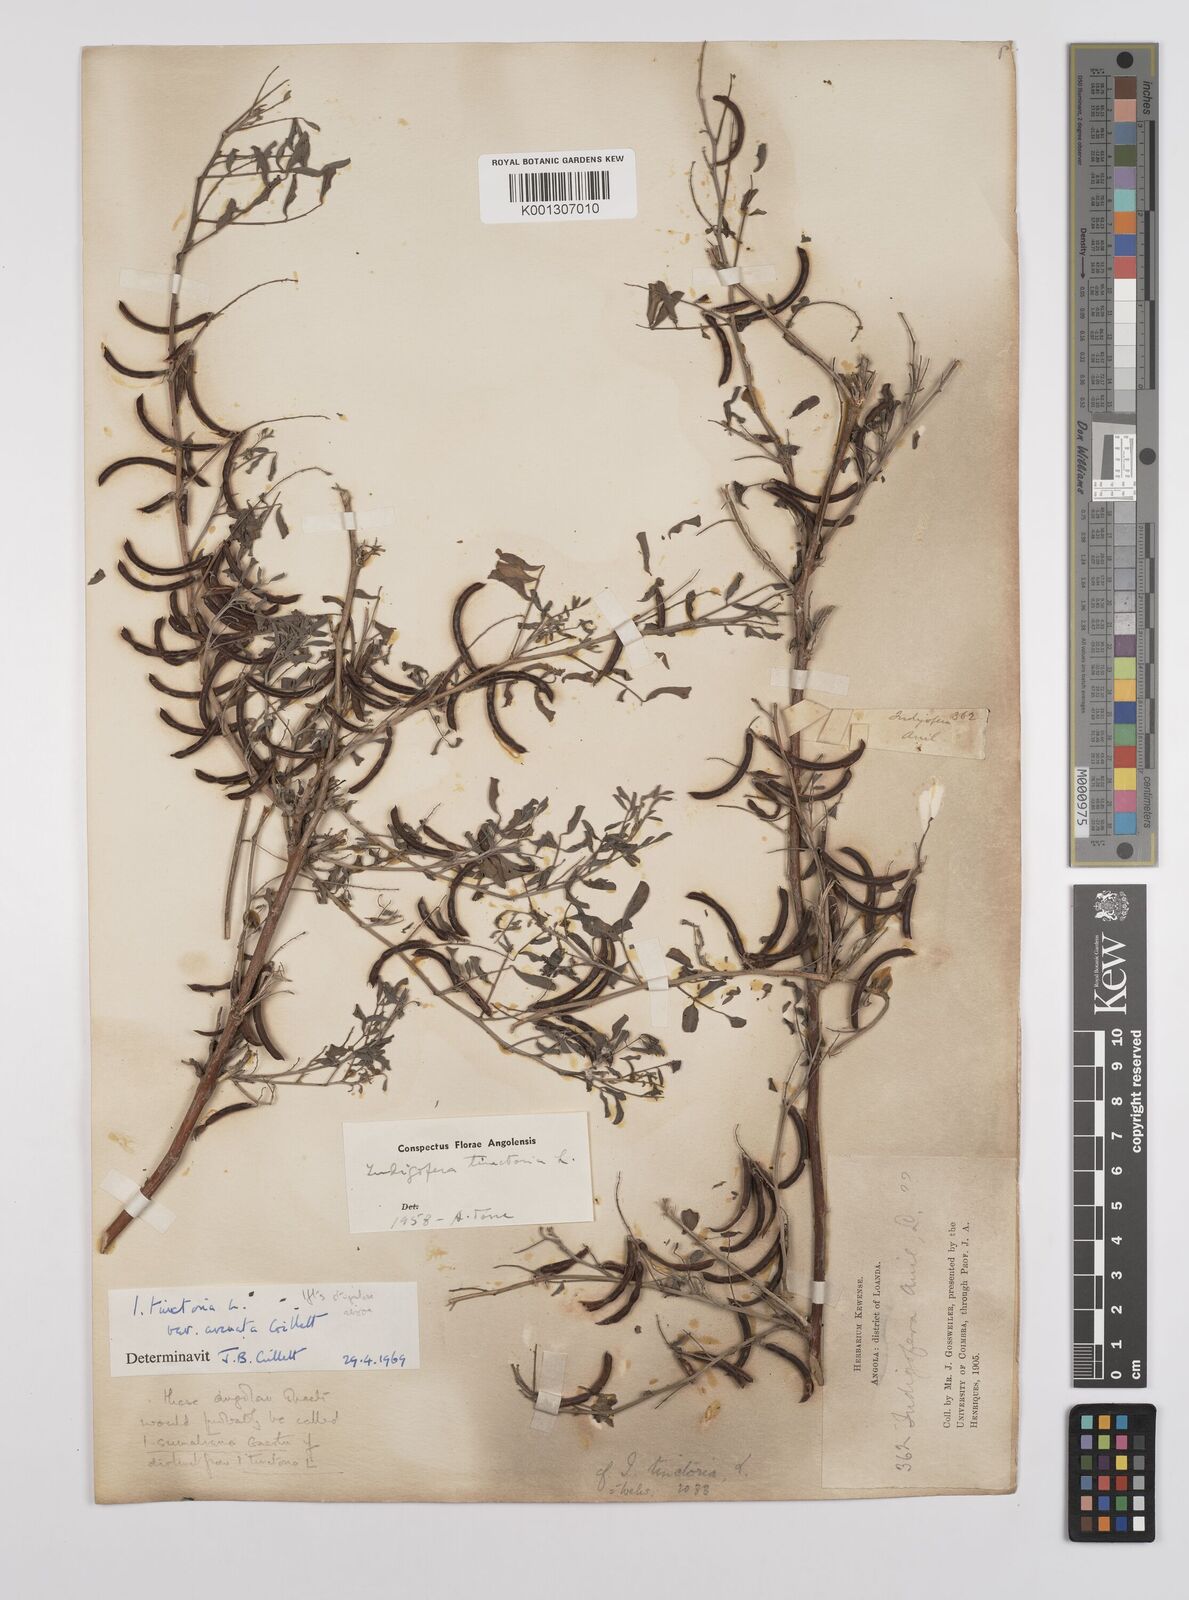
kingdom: Plantae
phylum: Tracheophyta
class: Magnoliopsida
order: Fabales
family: Fabaceae
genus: Indigofera
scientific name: Indigofera tinctoria
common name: True indigo
